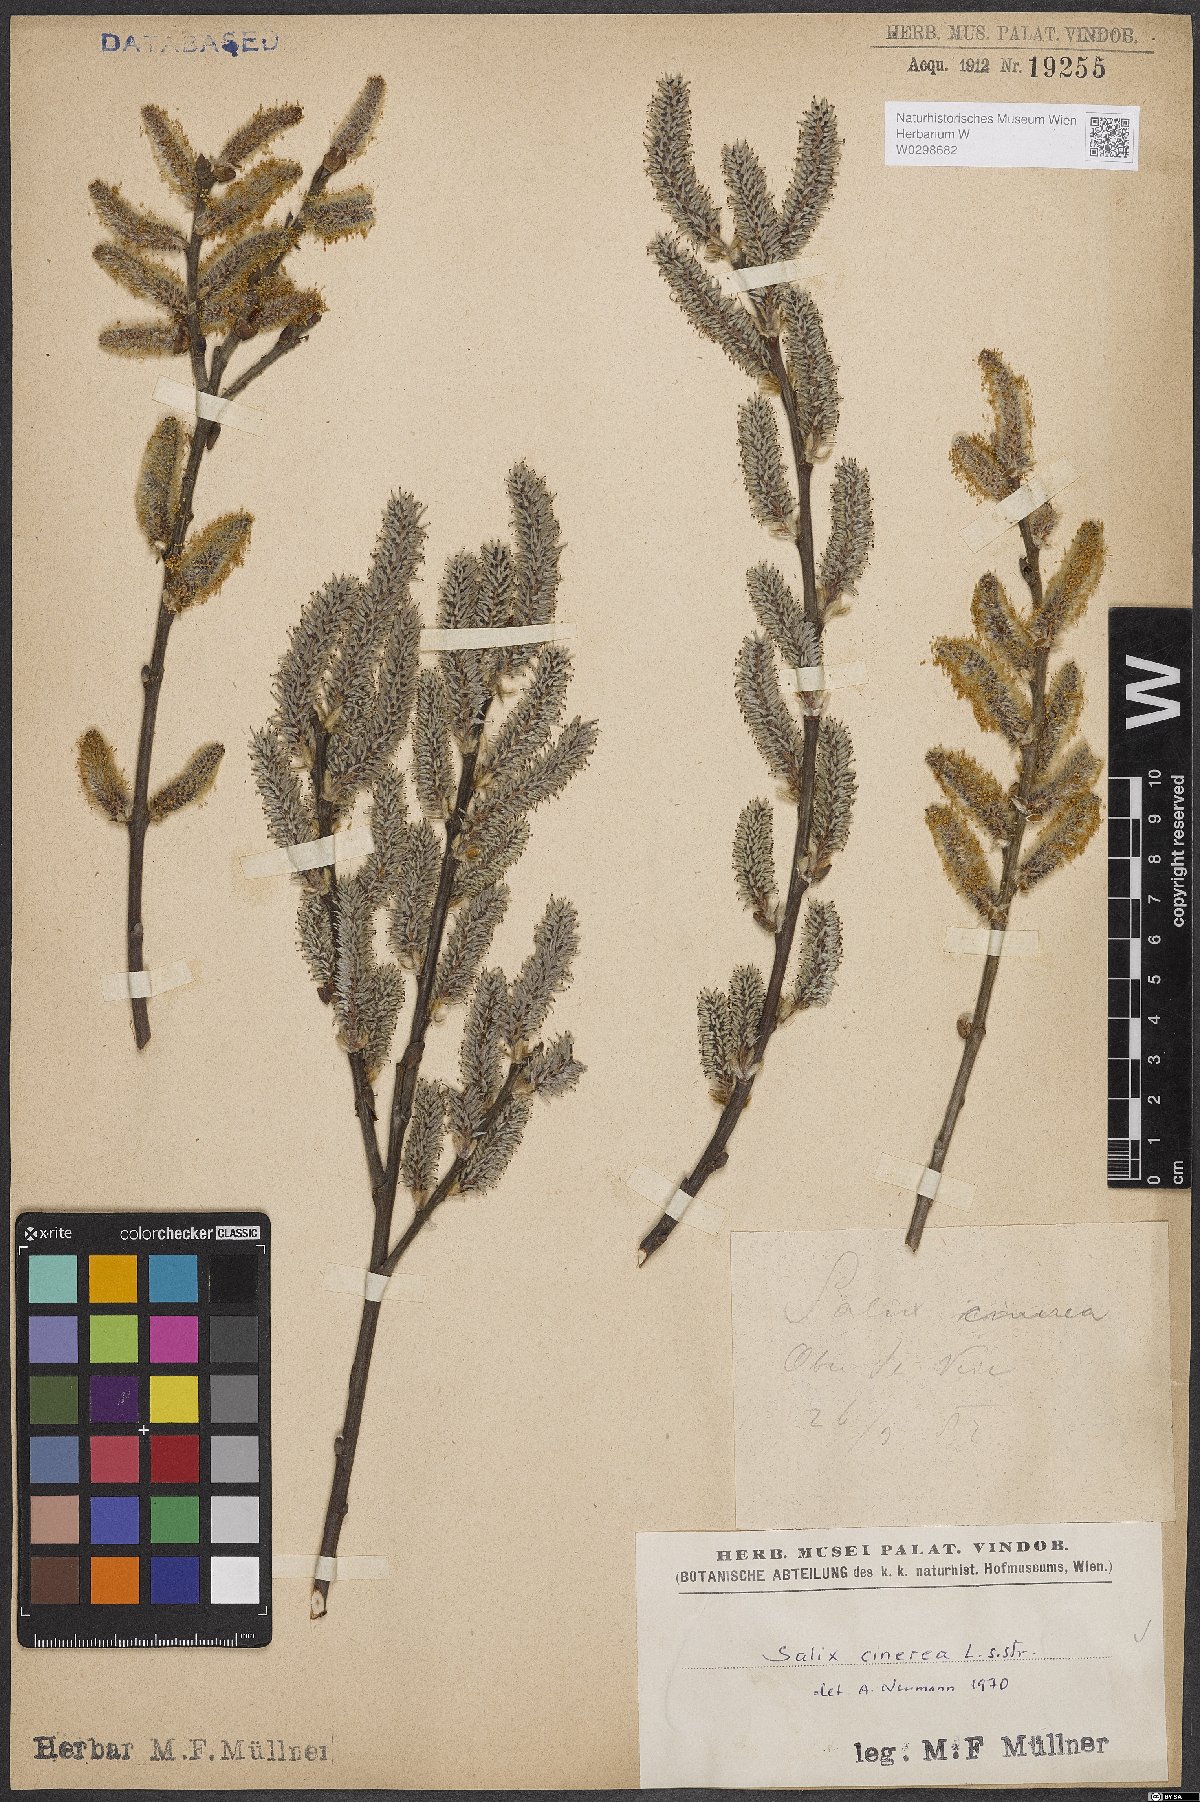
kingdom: Plantae
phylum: Tracheophyta
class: Magnoliopsida
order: Malpighiales
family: Salicaceae
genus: Salix
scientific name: Salix cinerea
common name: Common sallow
